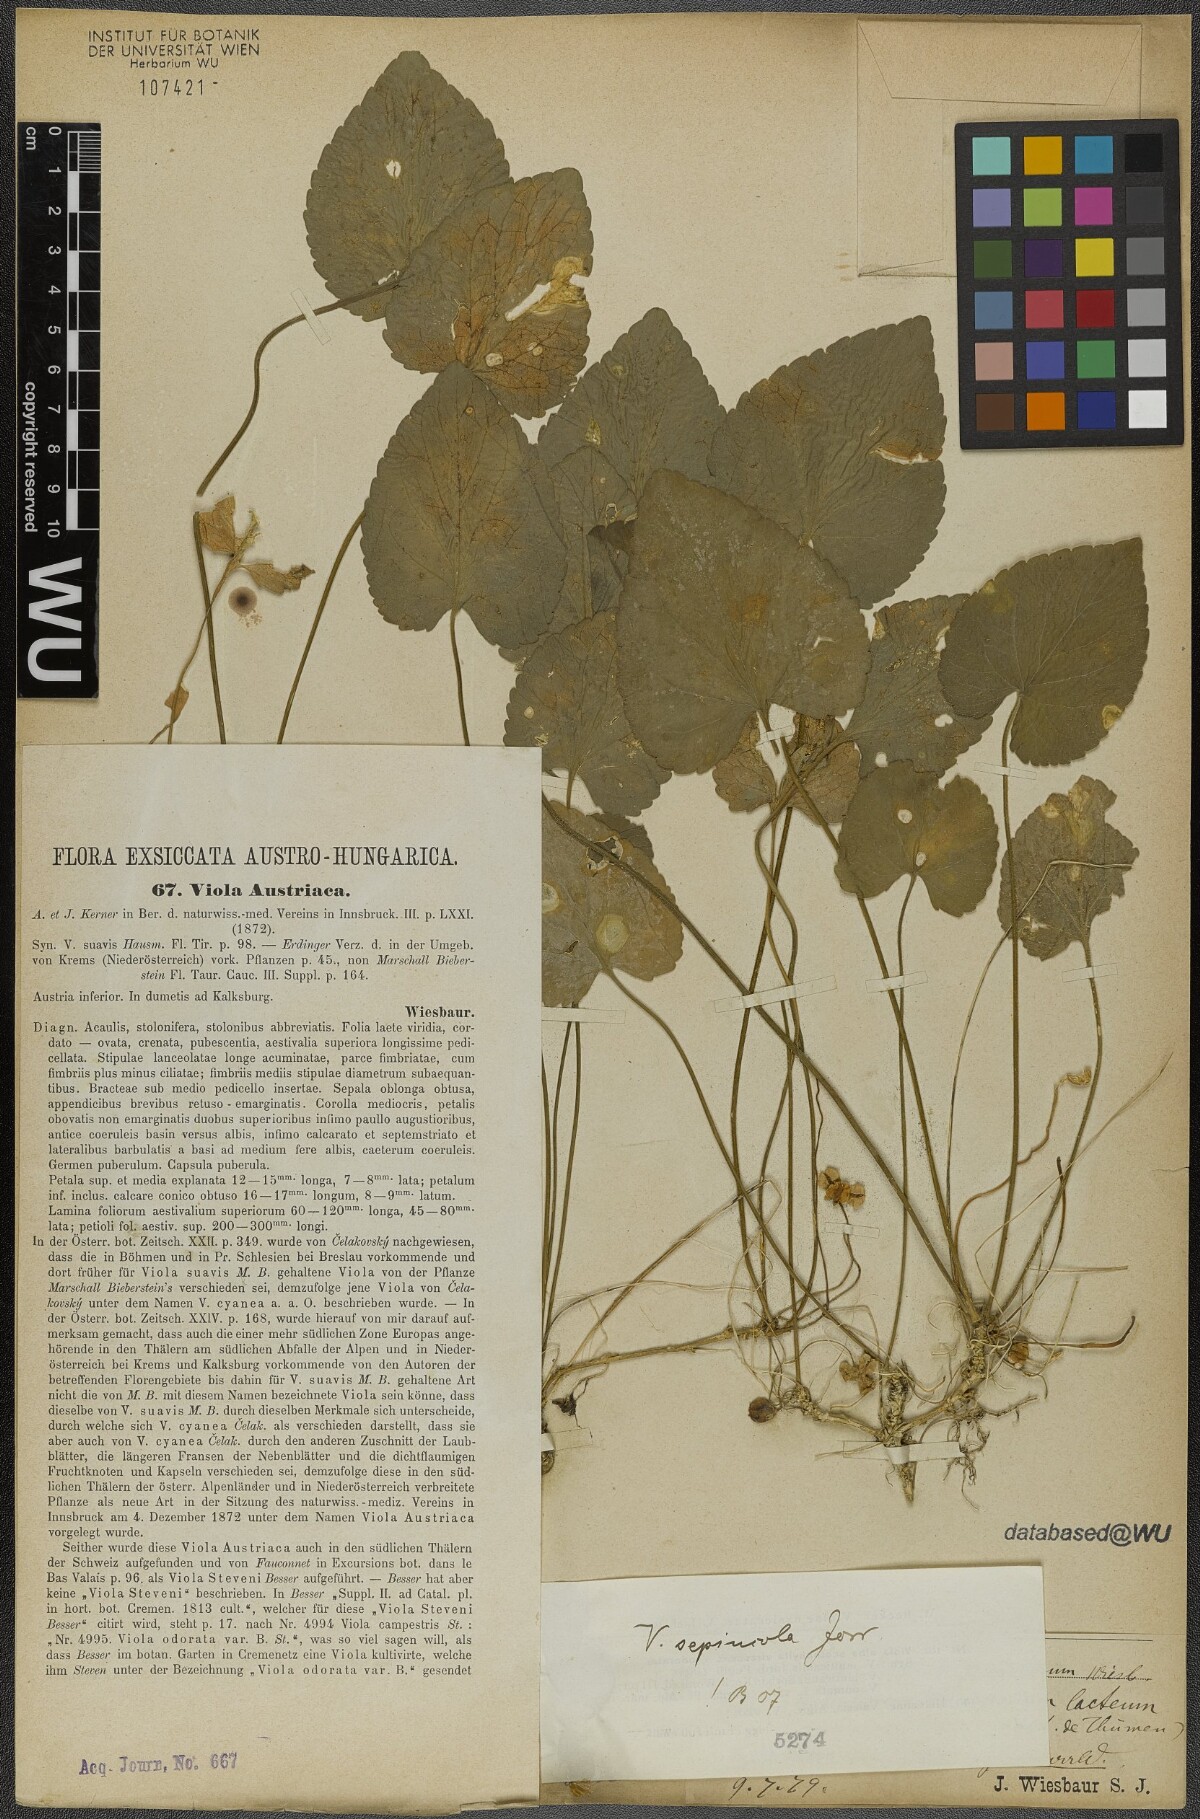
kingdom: Plantae
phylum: Tracheophyta
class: Magnoliopsida
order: Malpighiales
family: Violaceae
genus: Viola
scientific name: Viola suavis
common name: Russian violet
